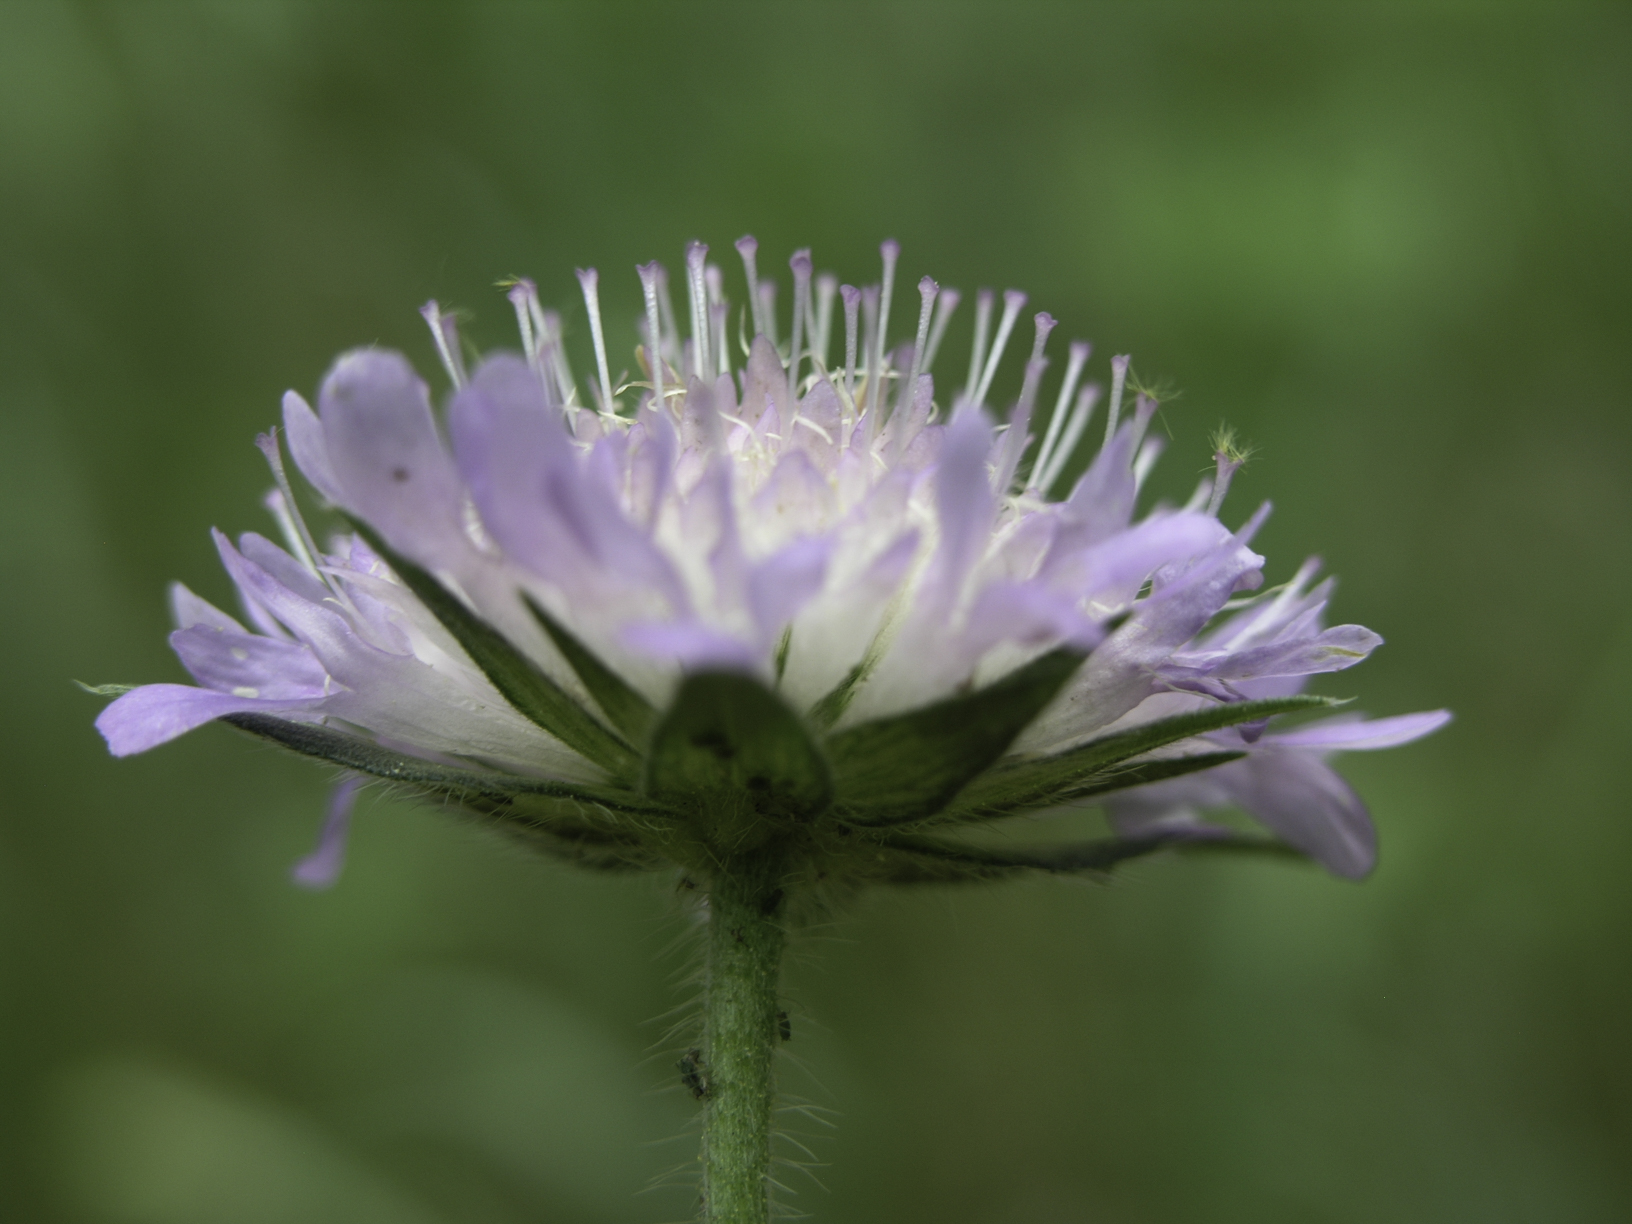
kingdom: Plantae
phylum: Tracheophyta
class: Magnoliopsida
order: Dipsacales
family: Caprifoliaceae
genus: Knautia
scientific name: Knautia arvensis
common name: Field scabiosa
